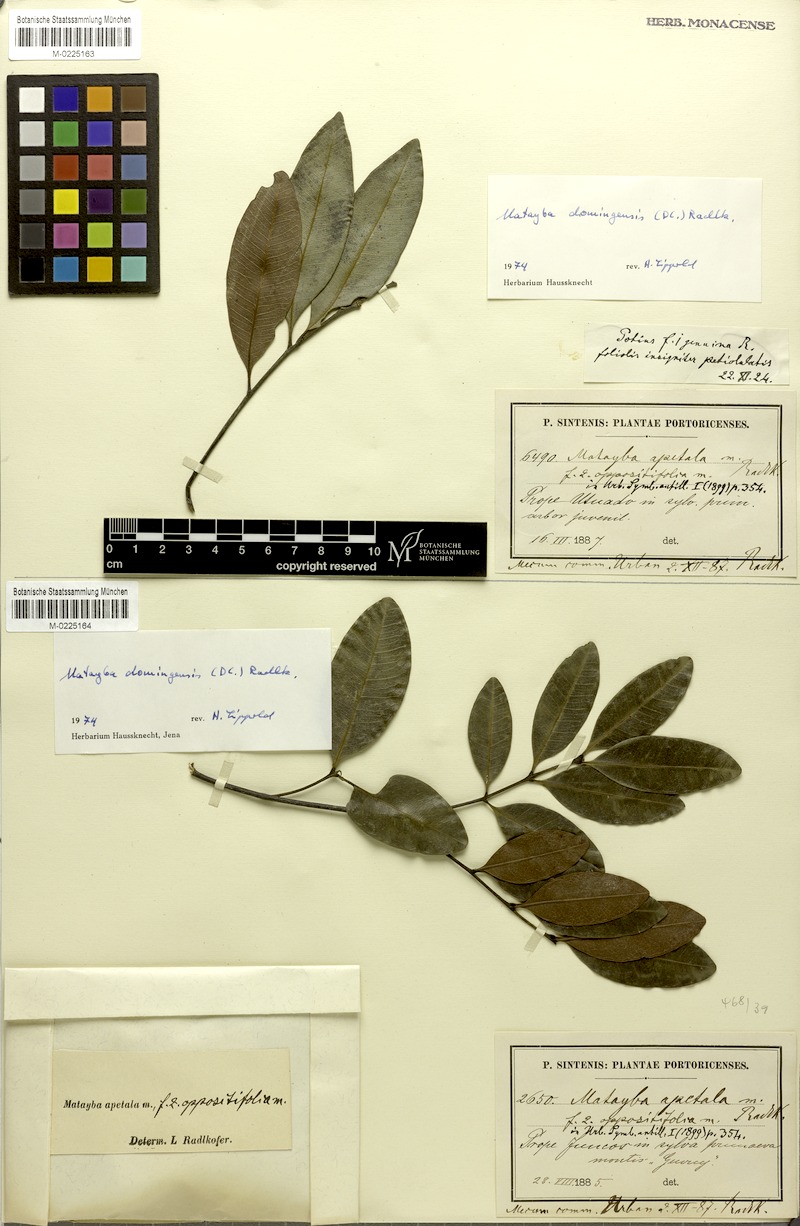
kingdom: Plantae
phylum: Tracheophyta
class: Magnoliopsida
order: Sapindales
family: Sapindaceae
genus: Matayba
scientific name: Matayba domingensis
